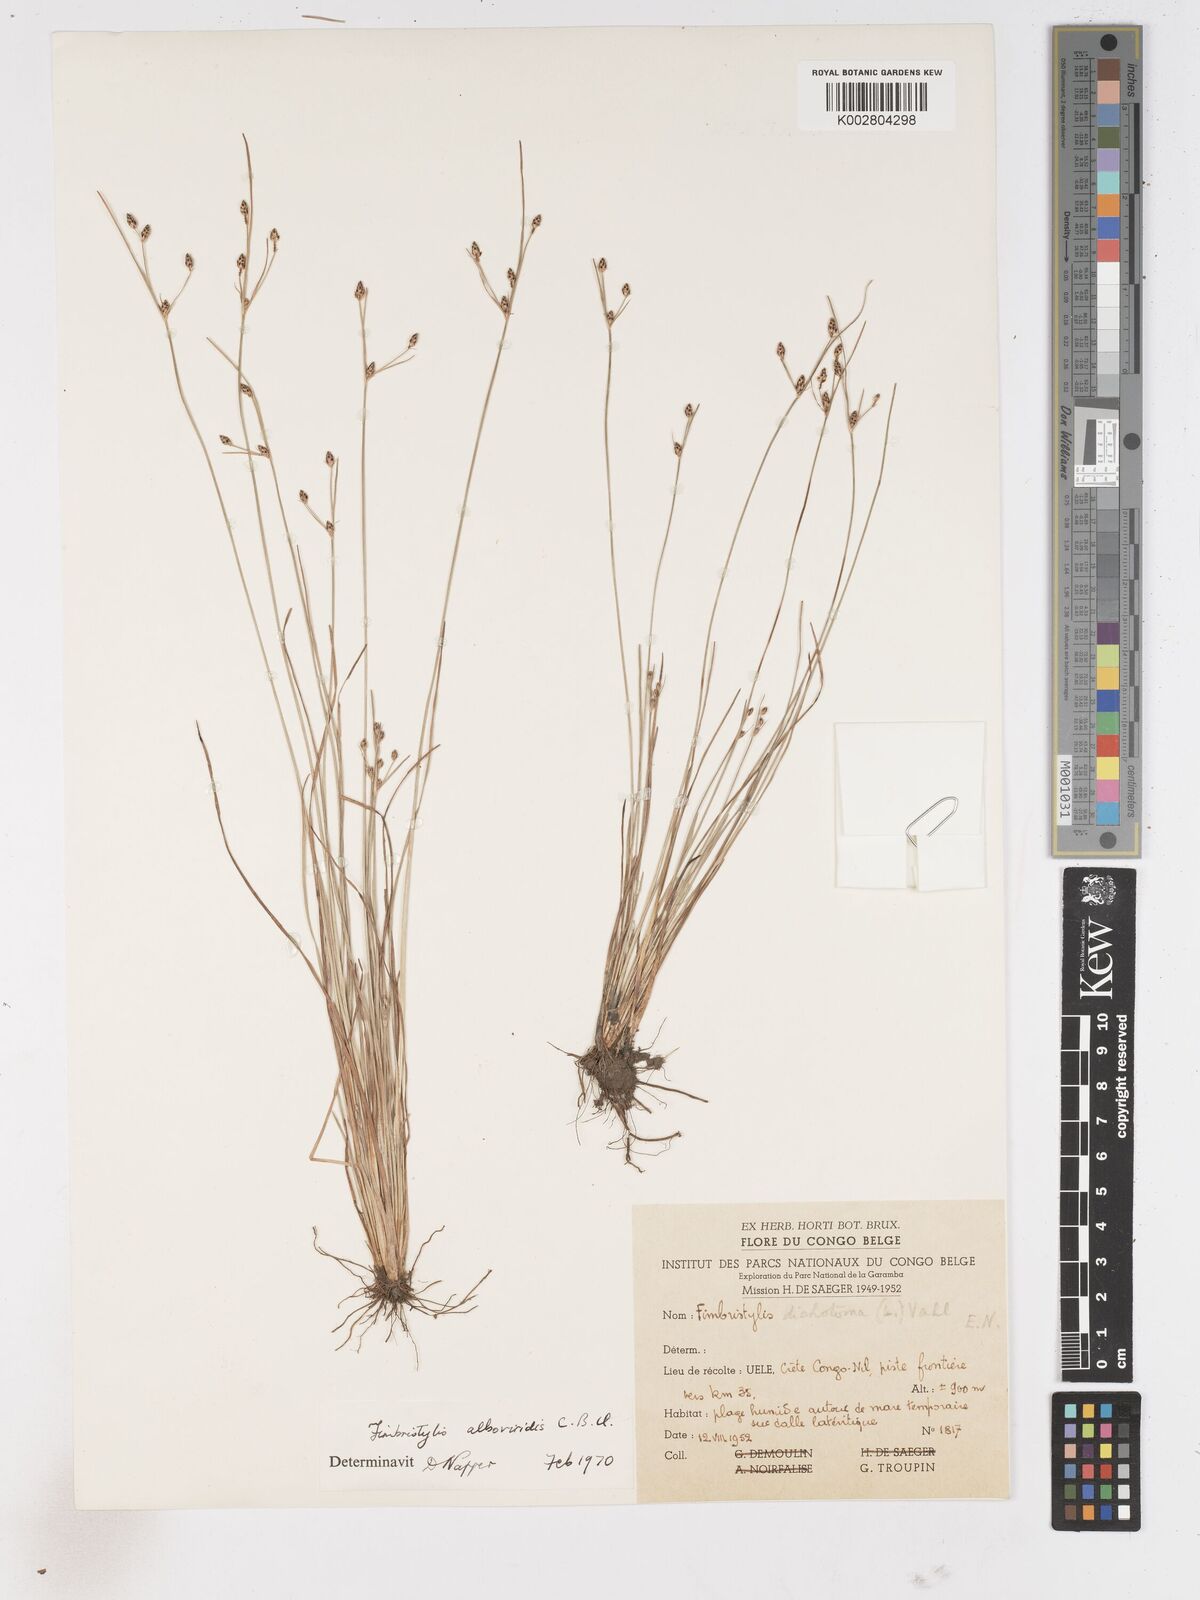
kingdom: Plantae
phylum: Tracheophyta
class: Liliopsida
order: Poales
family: Cyperaceae
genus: Fimbristylis
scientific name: Fimbristylis alboviridis
